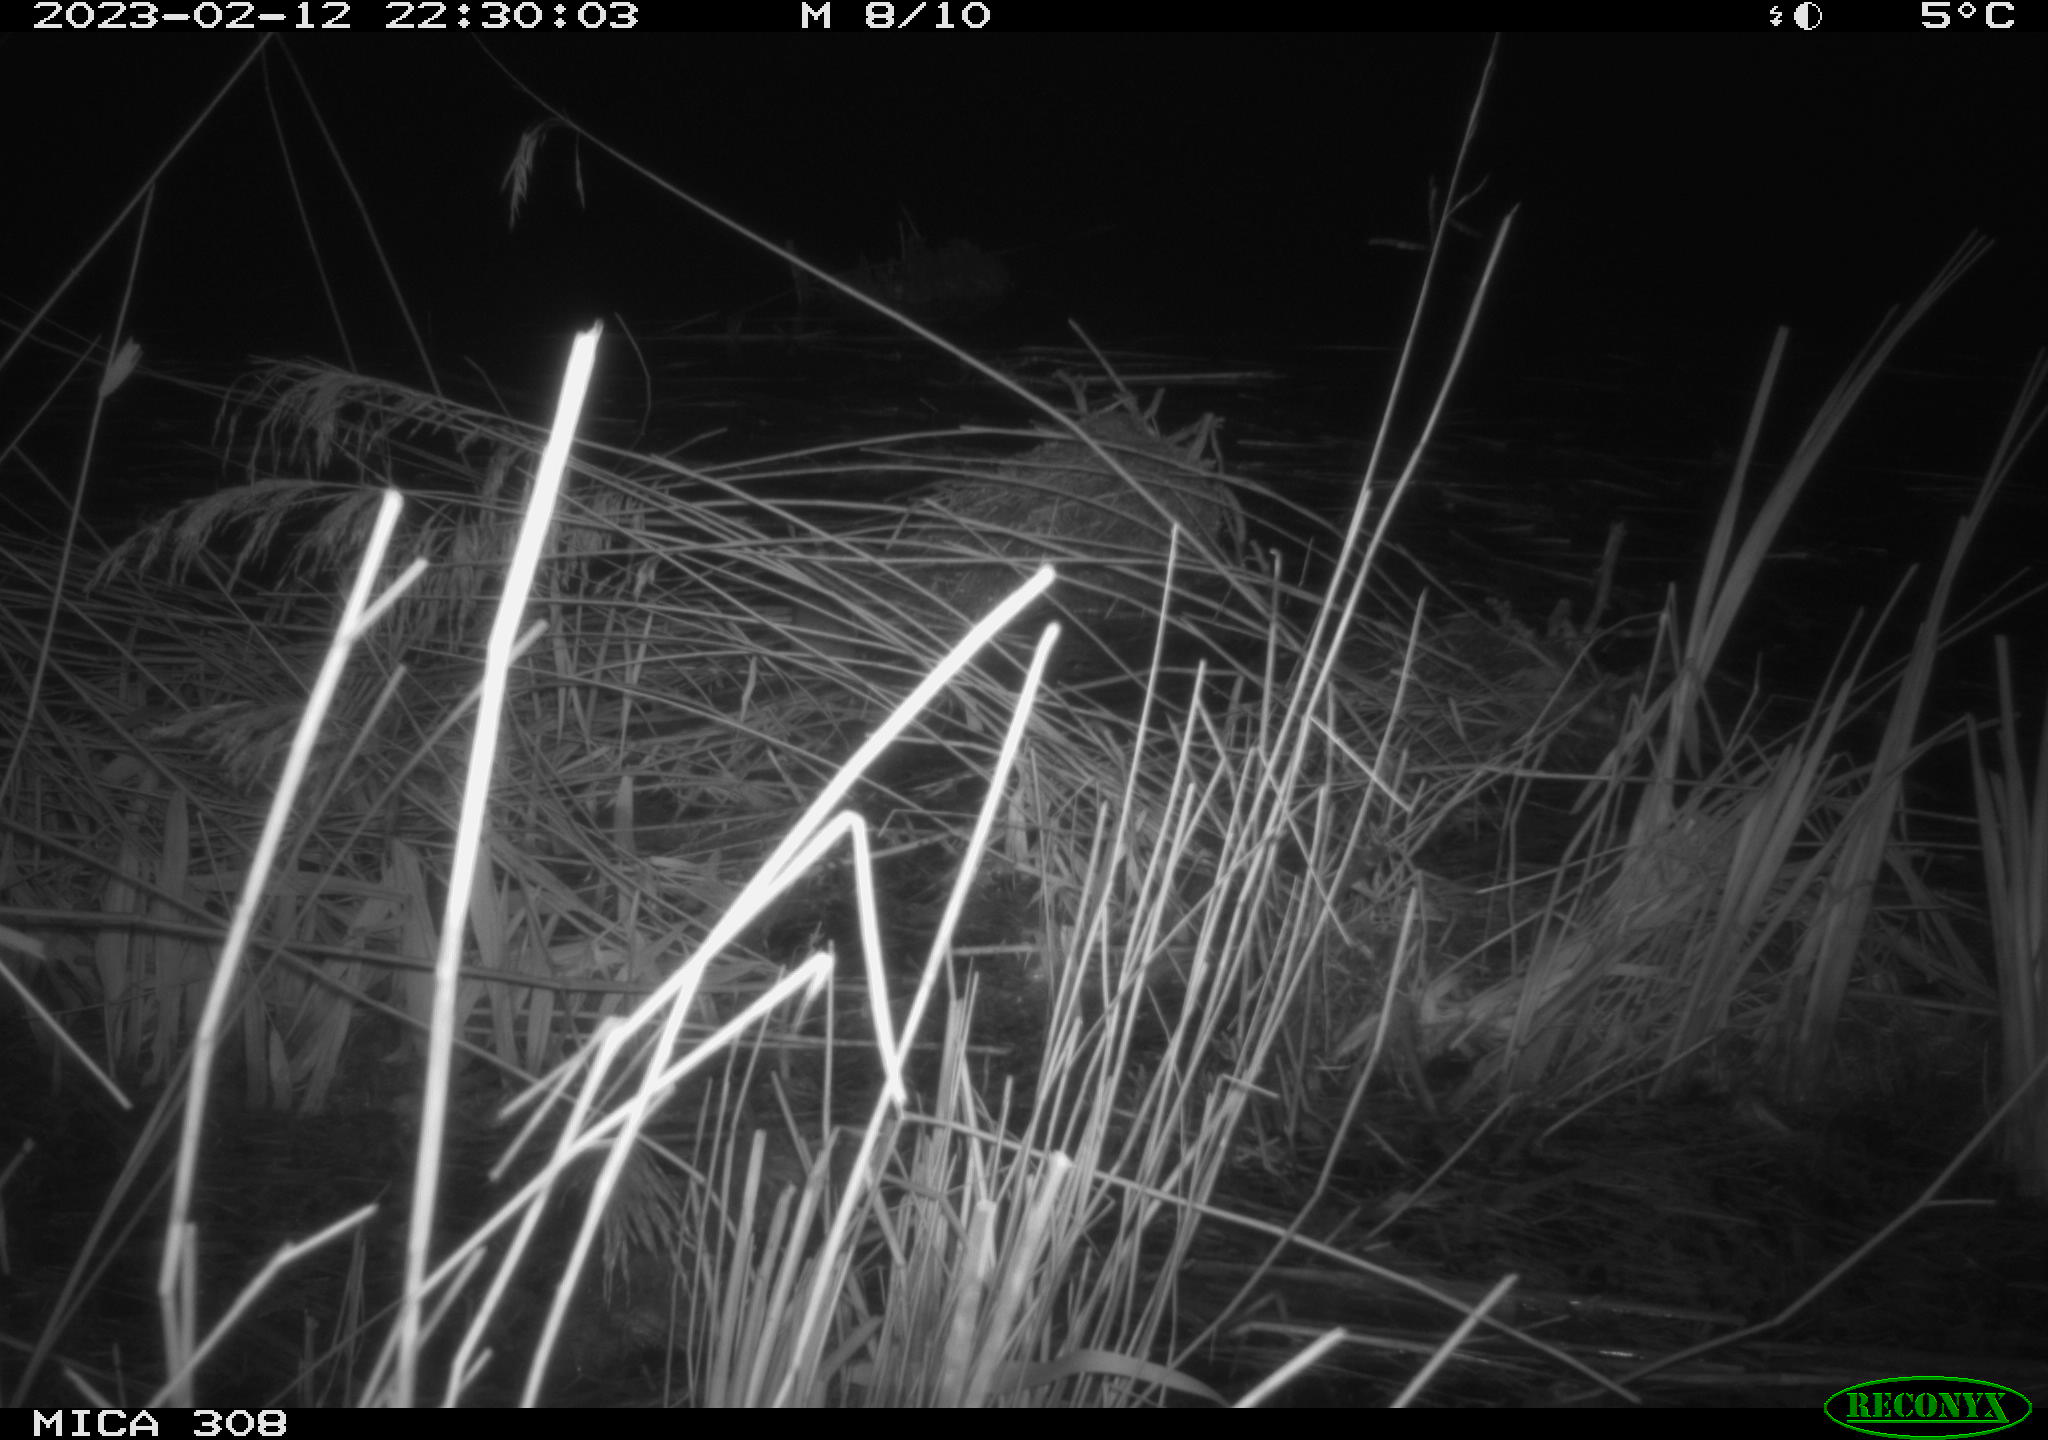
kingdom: Animalia
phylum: Chordata
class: Mammalia
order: Rodentia
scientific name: Rodentia
